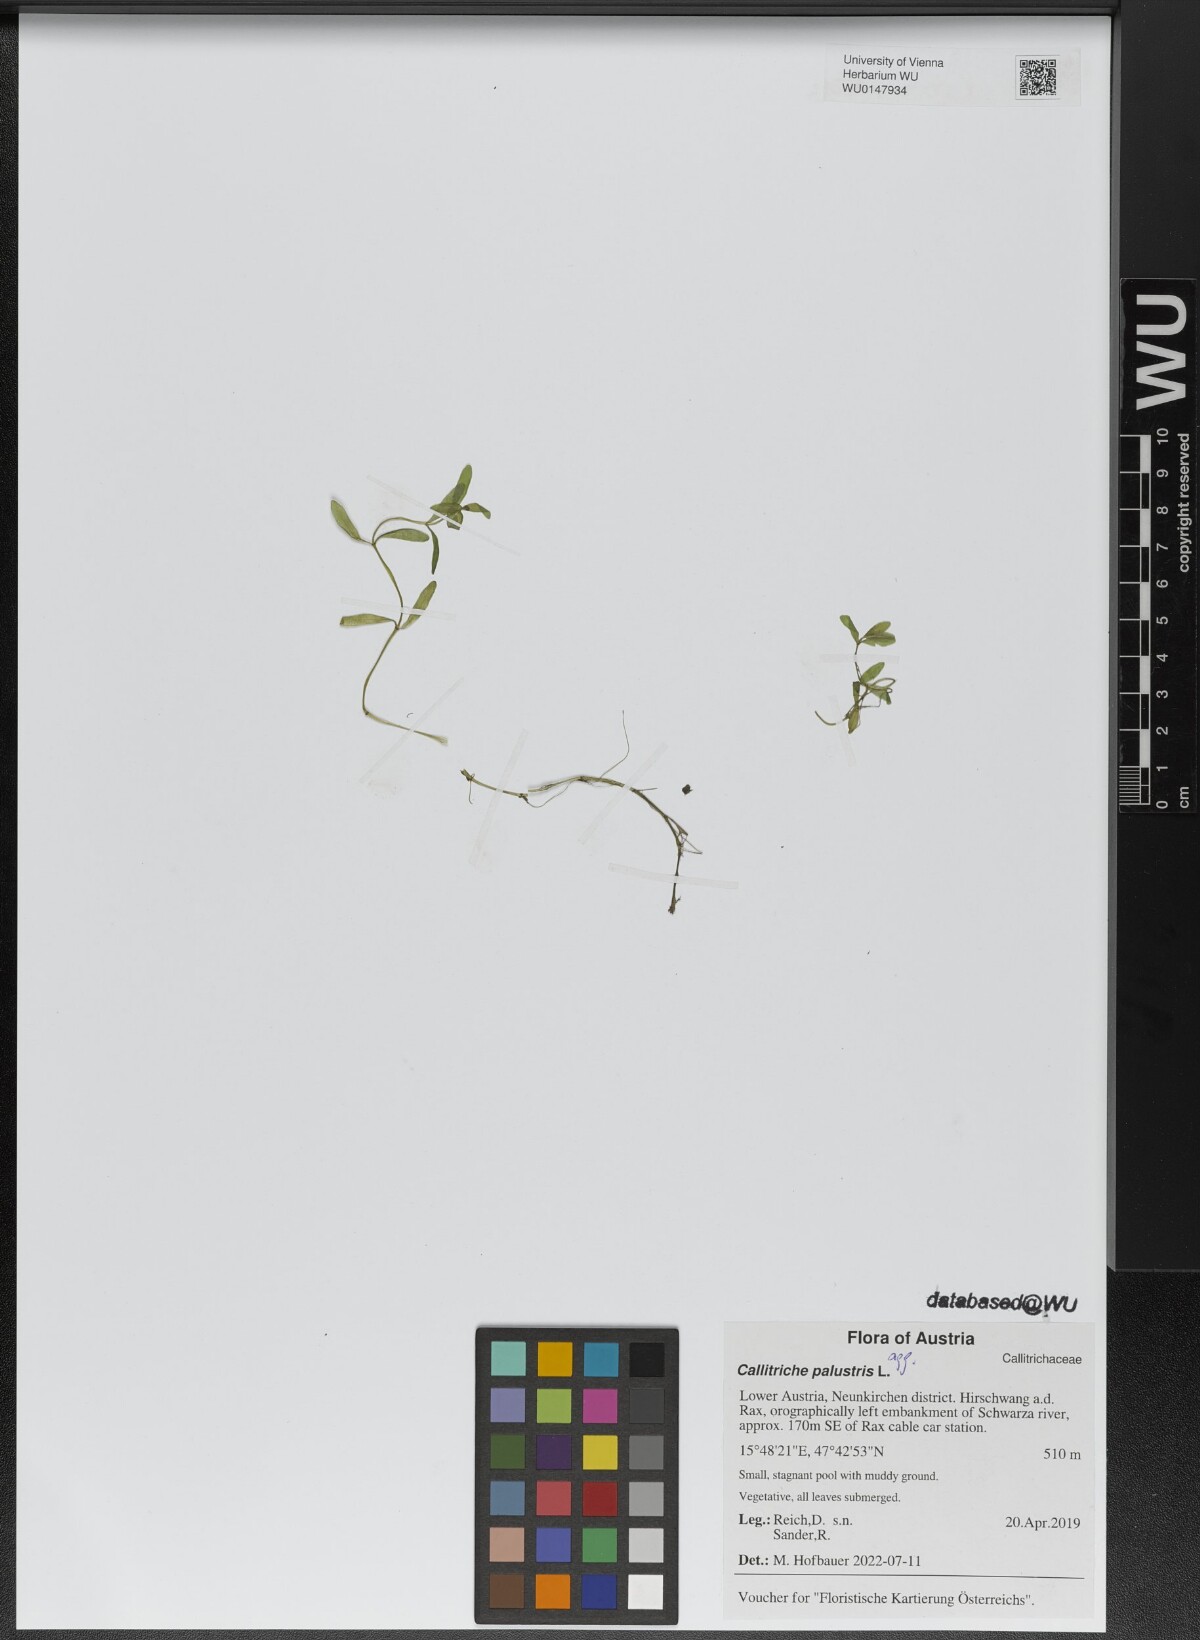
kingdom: Plantae
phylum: Tracheophyta
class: Magnoliopsida
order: Lamiales
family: Plantaginaceae
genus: Callitriche
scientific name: Callitriche palustris
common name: Spring water-starwort
